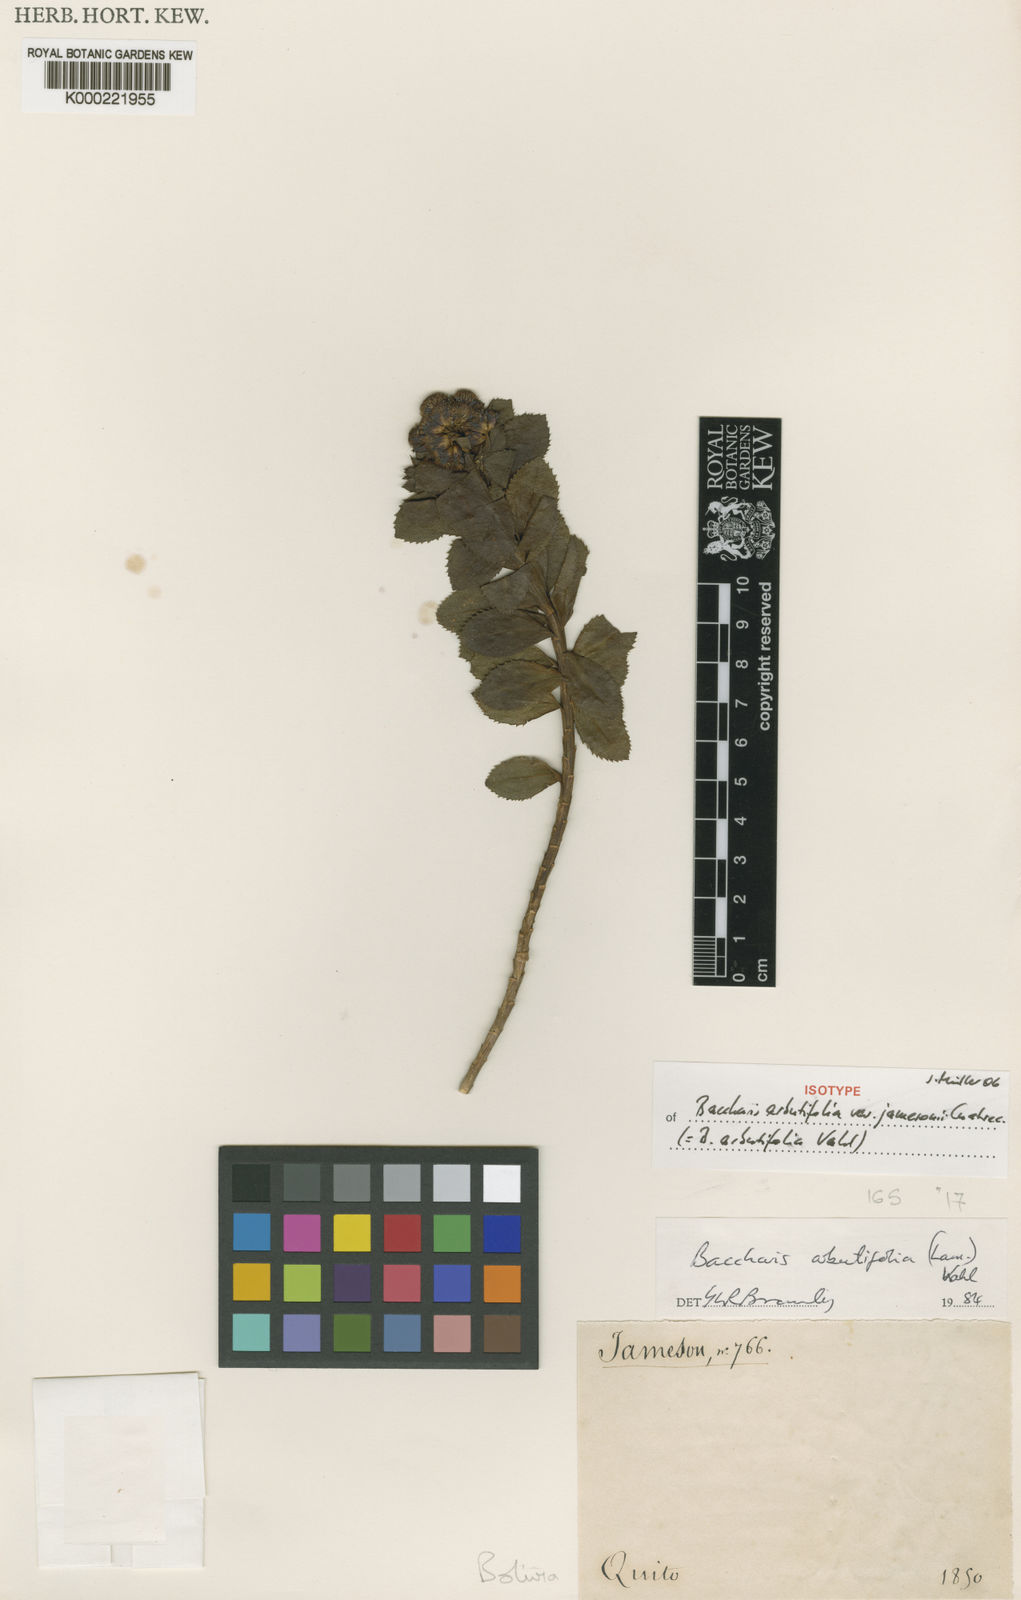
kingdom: Plantae
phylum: Tracheophyta
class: Magnoliopsida
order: Asterales
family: Asteraceae
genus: Baccharis
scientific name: Baccharis arbutifolia
